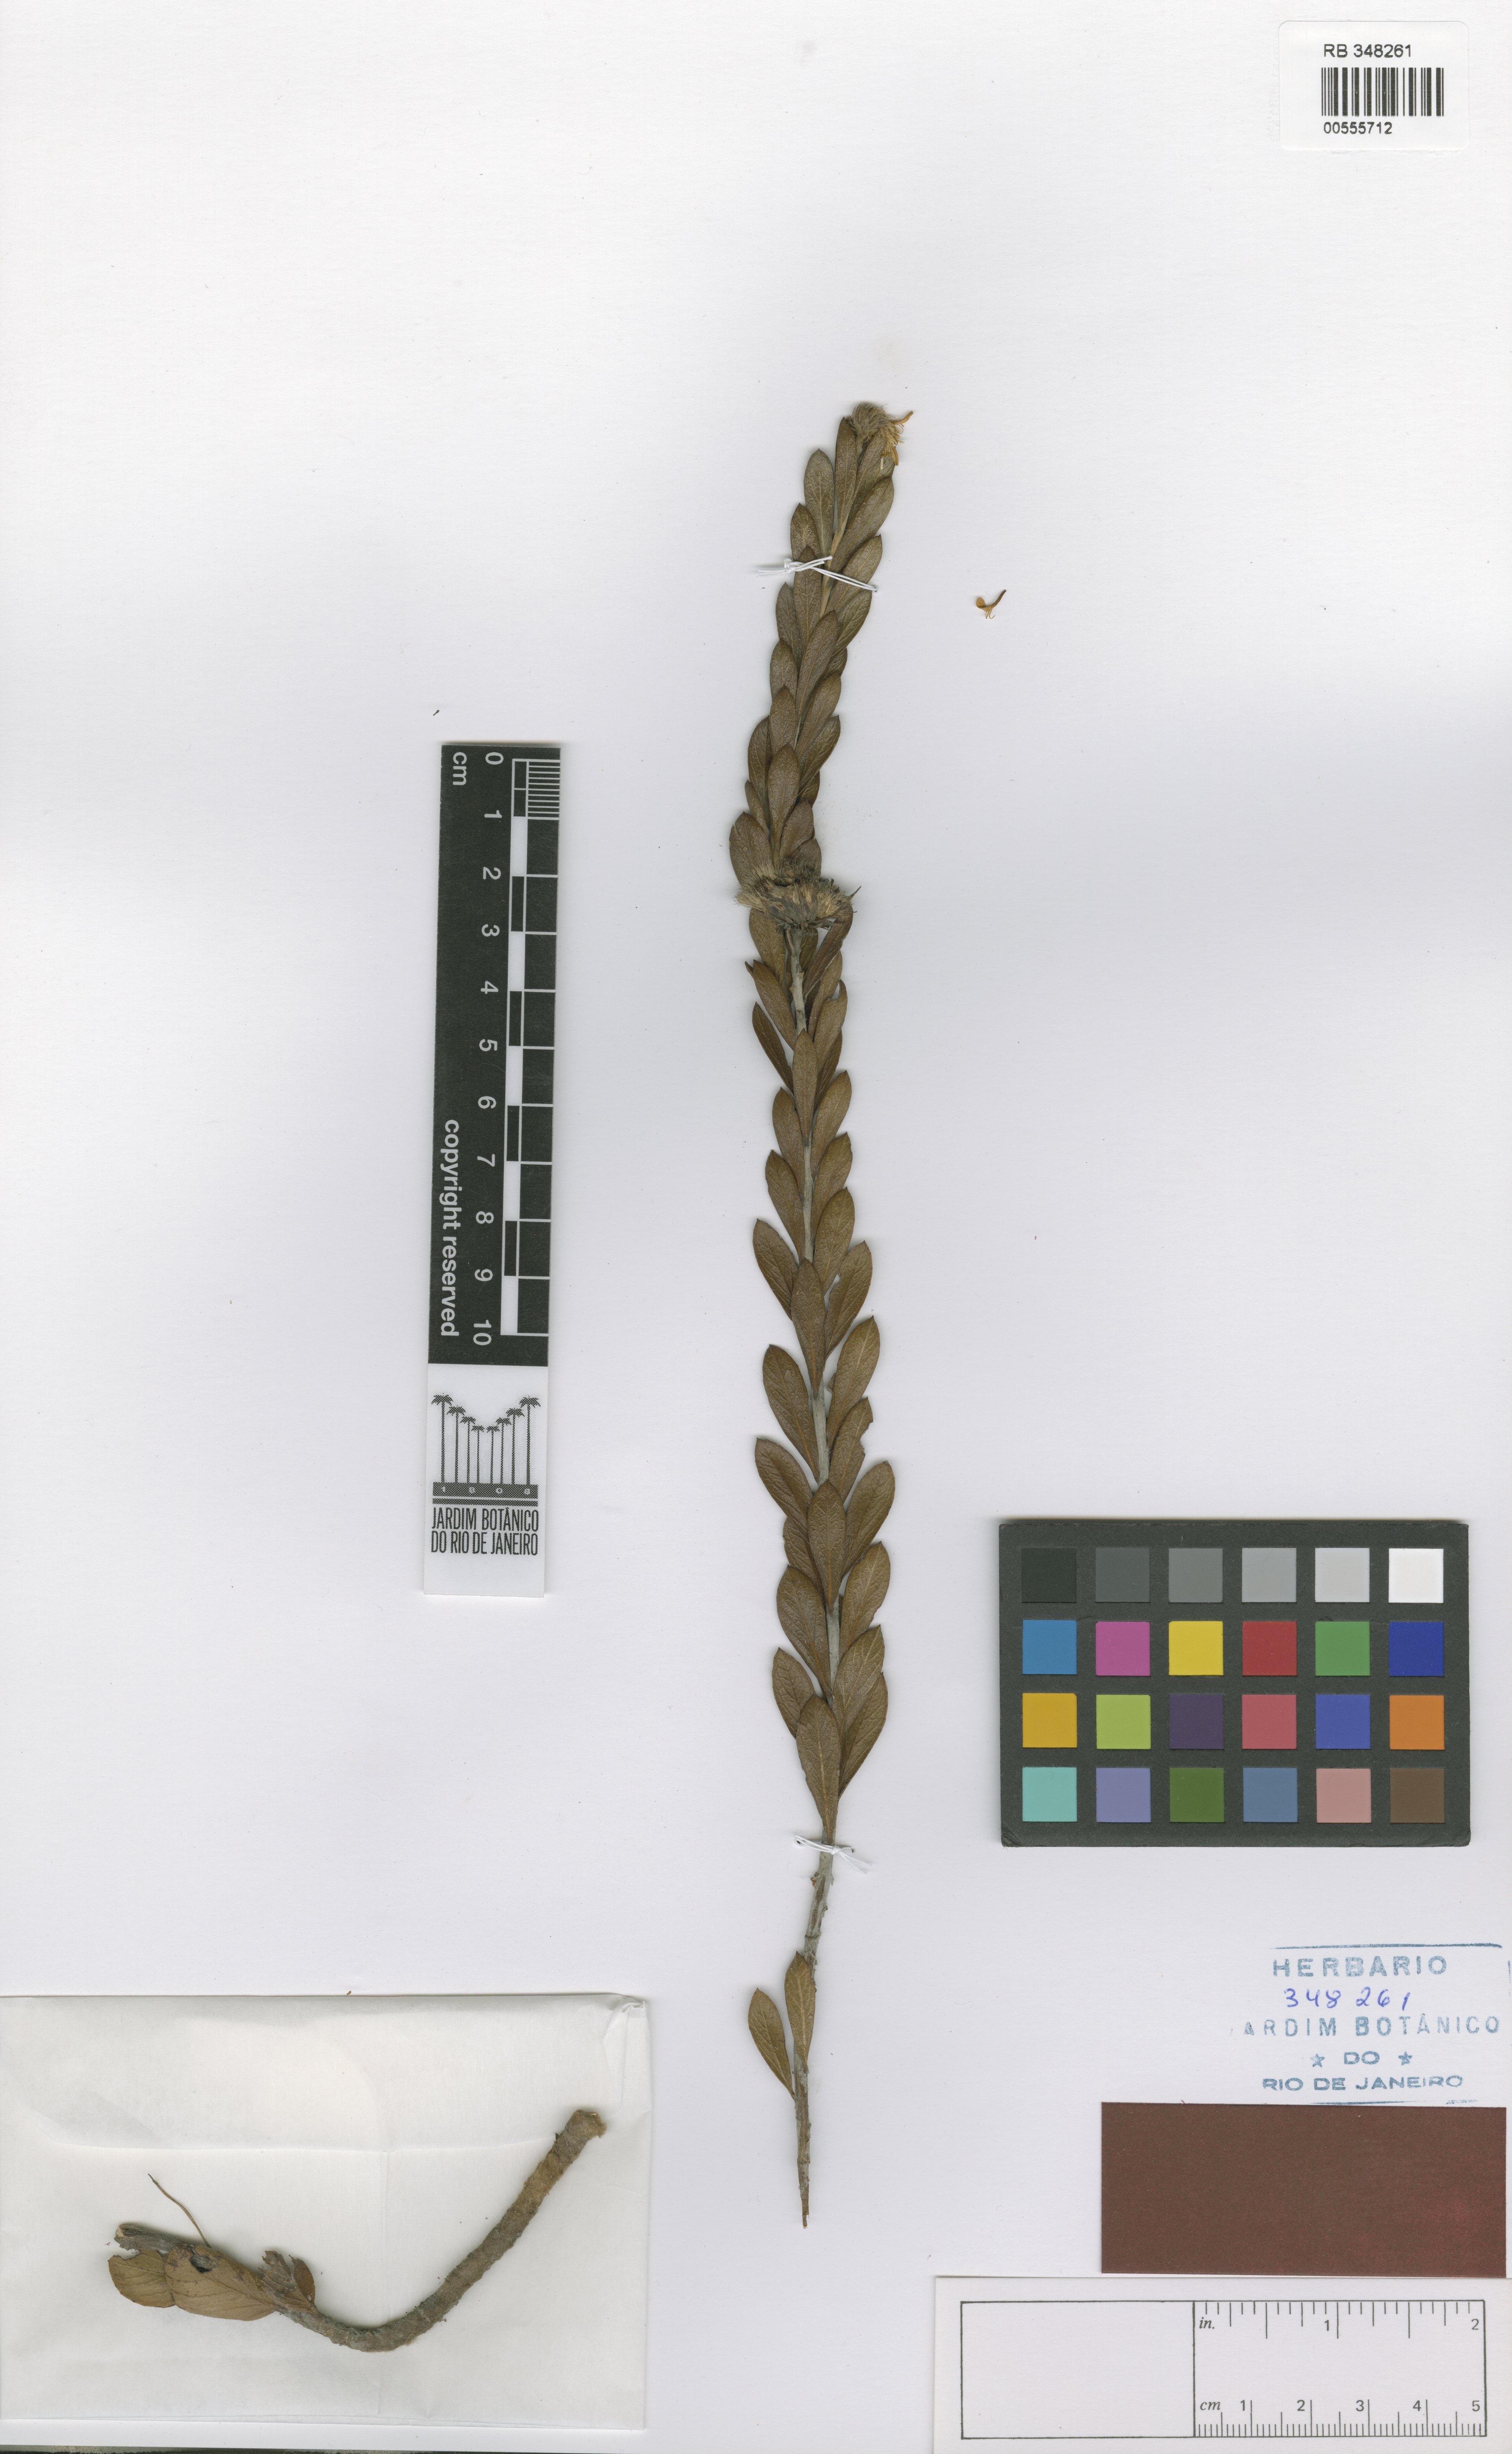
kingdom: Plantae
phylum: Tracheophyta
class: Magnoliopsida
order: Asterales
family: Asteraceae
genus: Richterago
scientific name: Richterago caulescens
